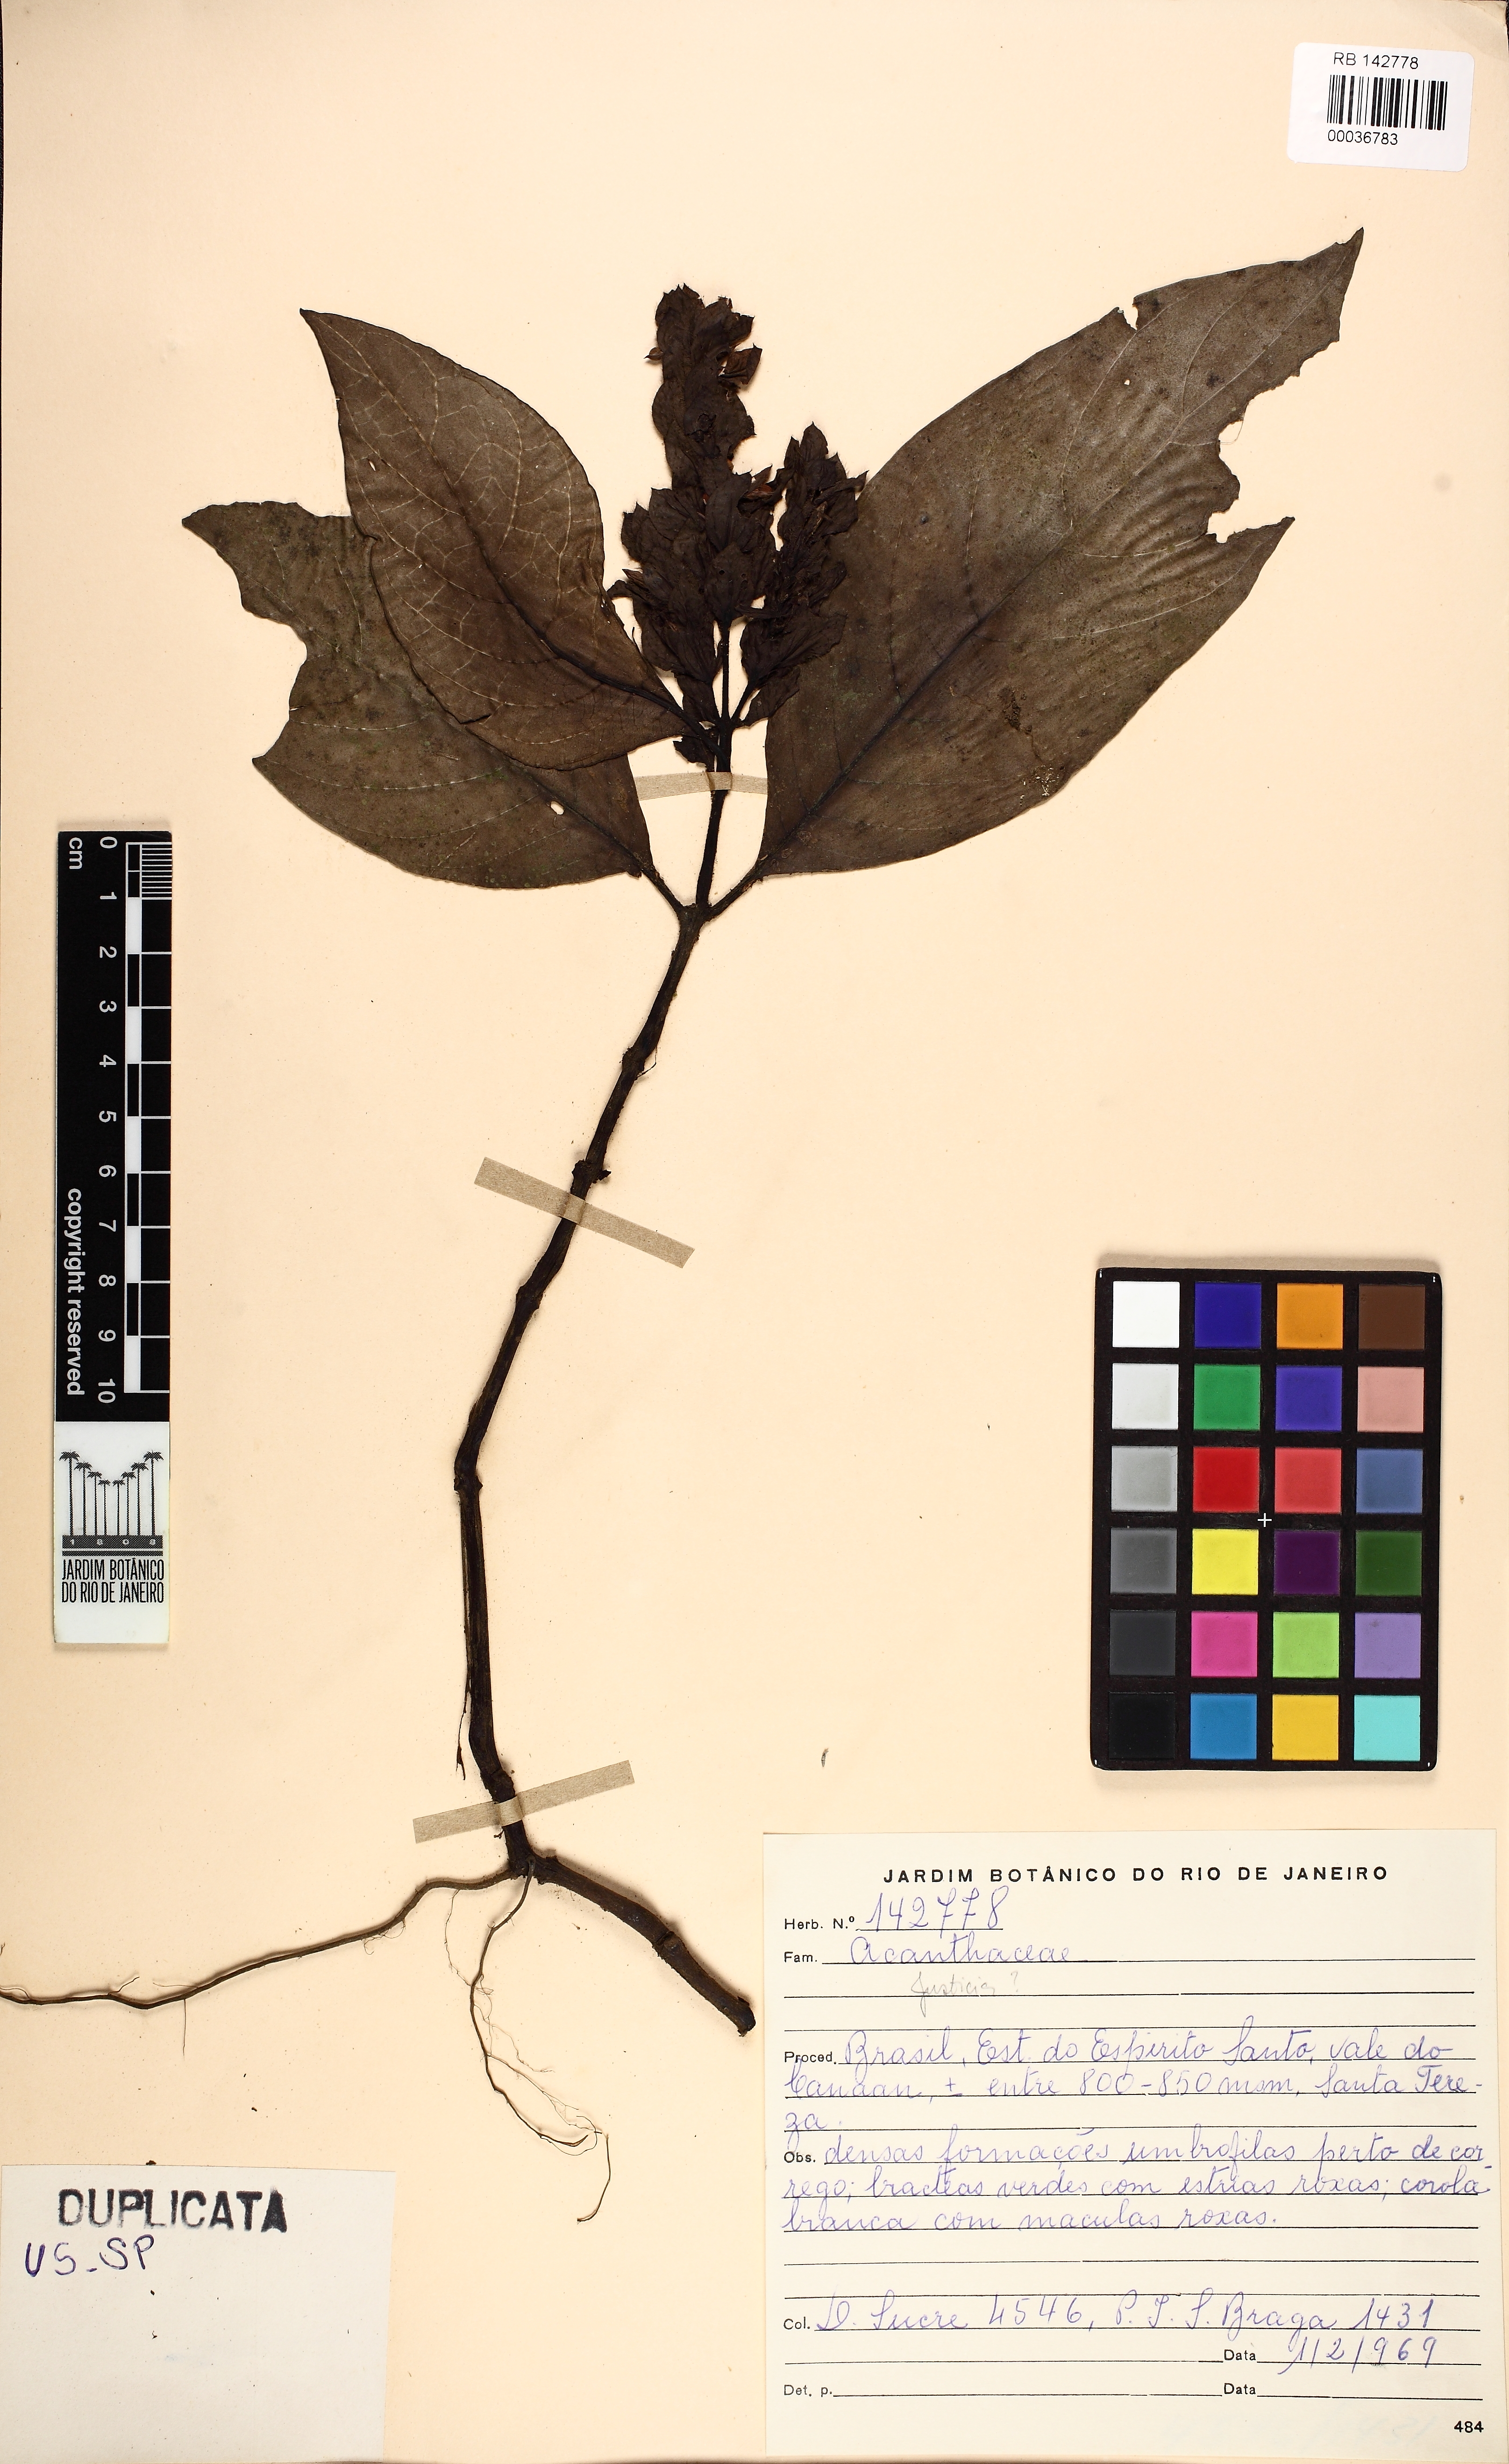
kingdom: Plantae
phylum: Tracheophyta
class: Magnoliopsida
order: Lamiales
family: Acanthaceae
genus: Justicia
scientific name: Justicia
